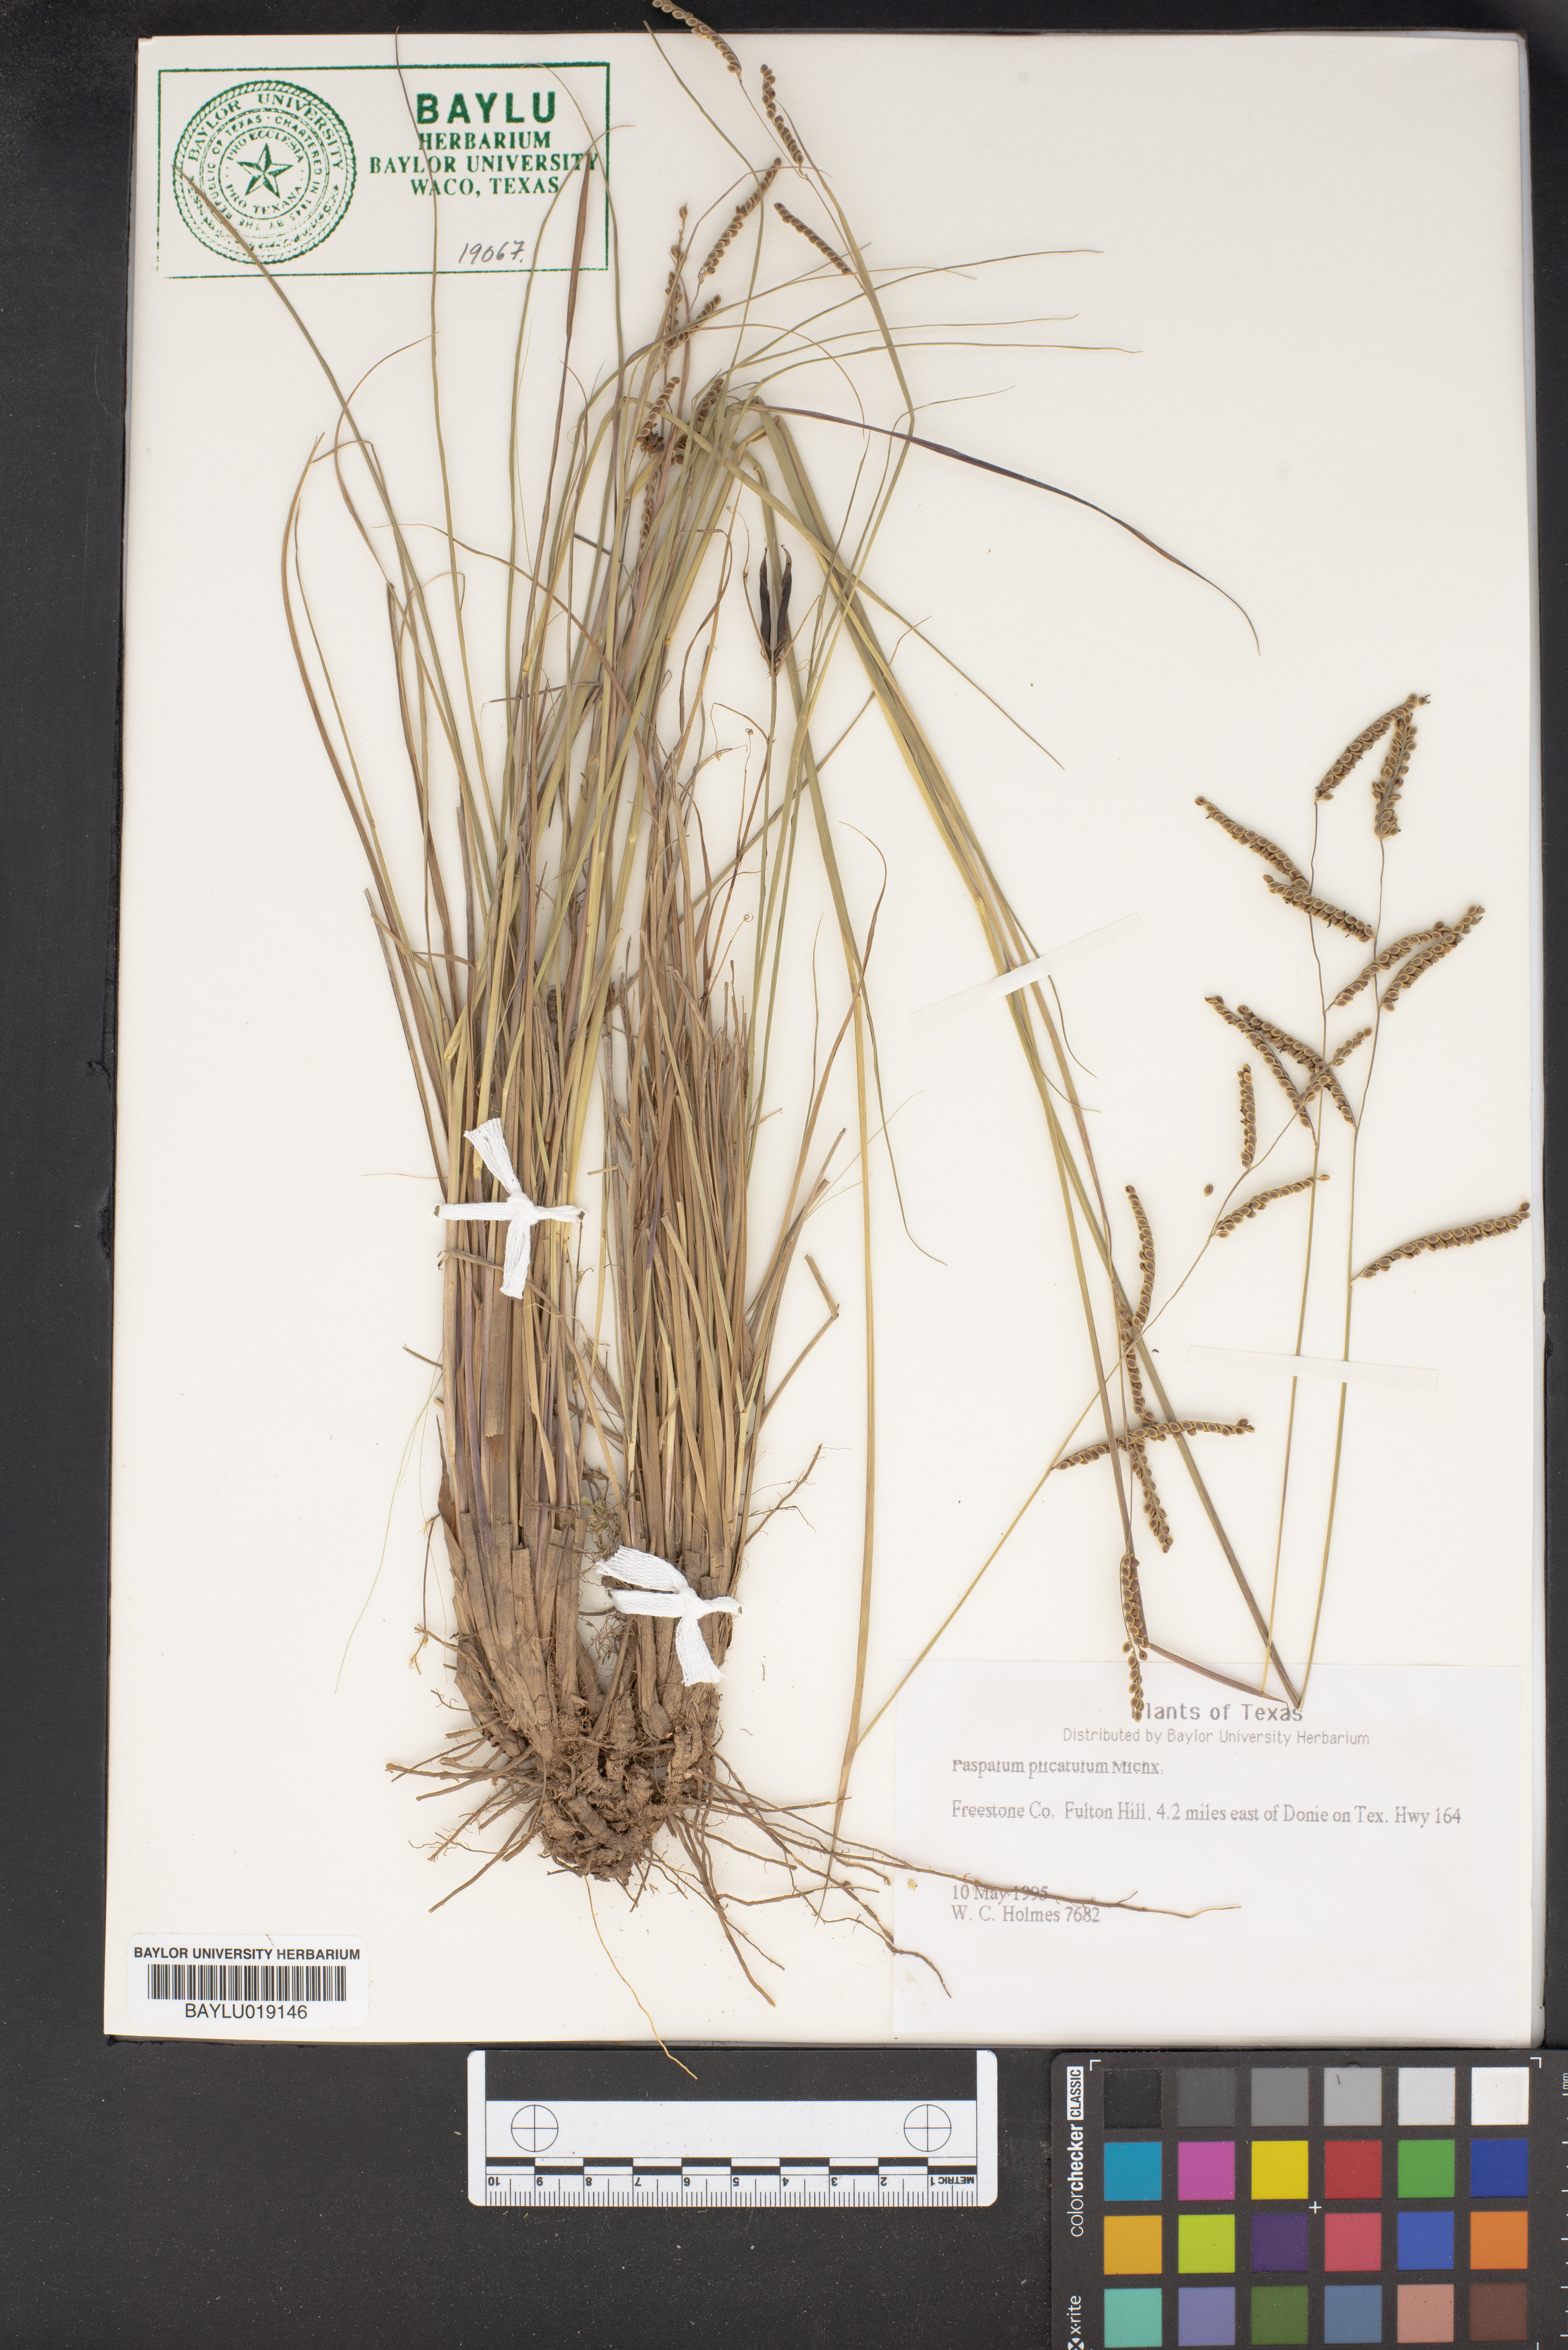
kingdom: Plantae
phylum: Tracheophyta
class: Liliopsida
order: Poales
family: Poaceae
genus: Paspalum
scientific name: Paspalum plicatulum
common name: Top paspalum
